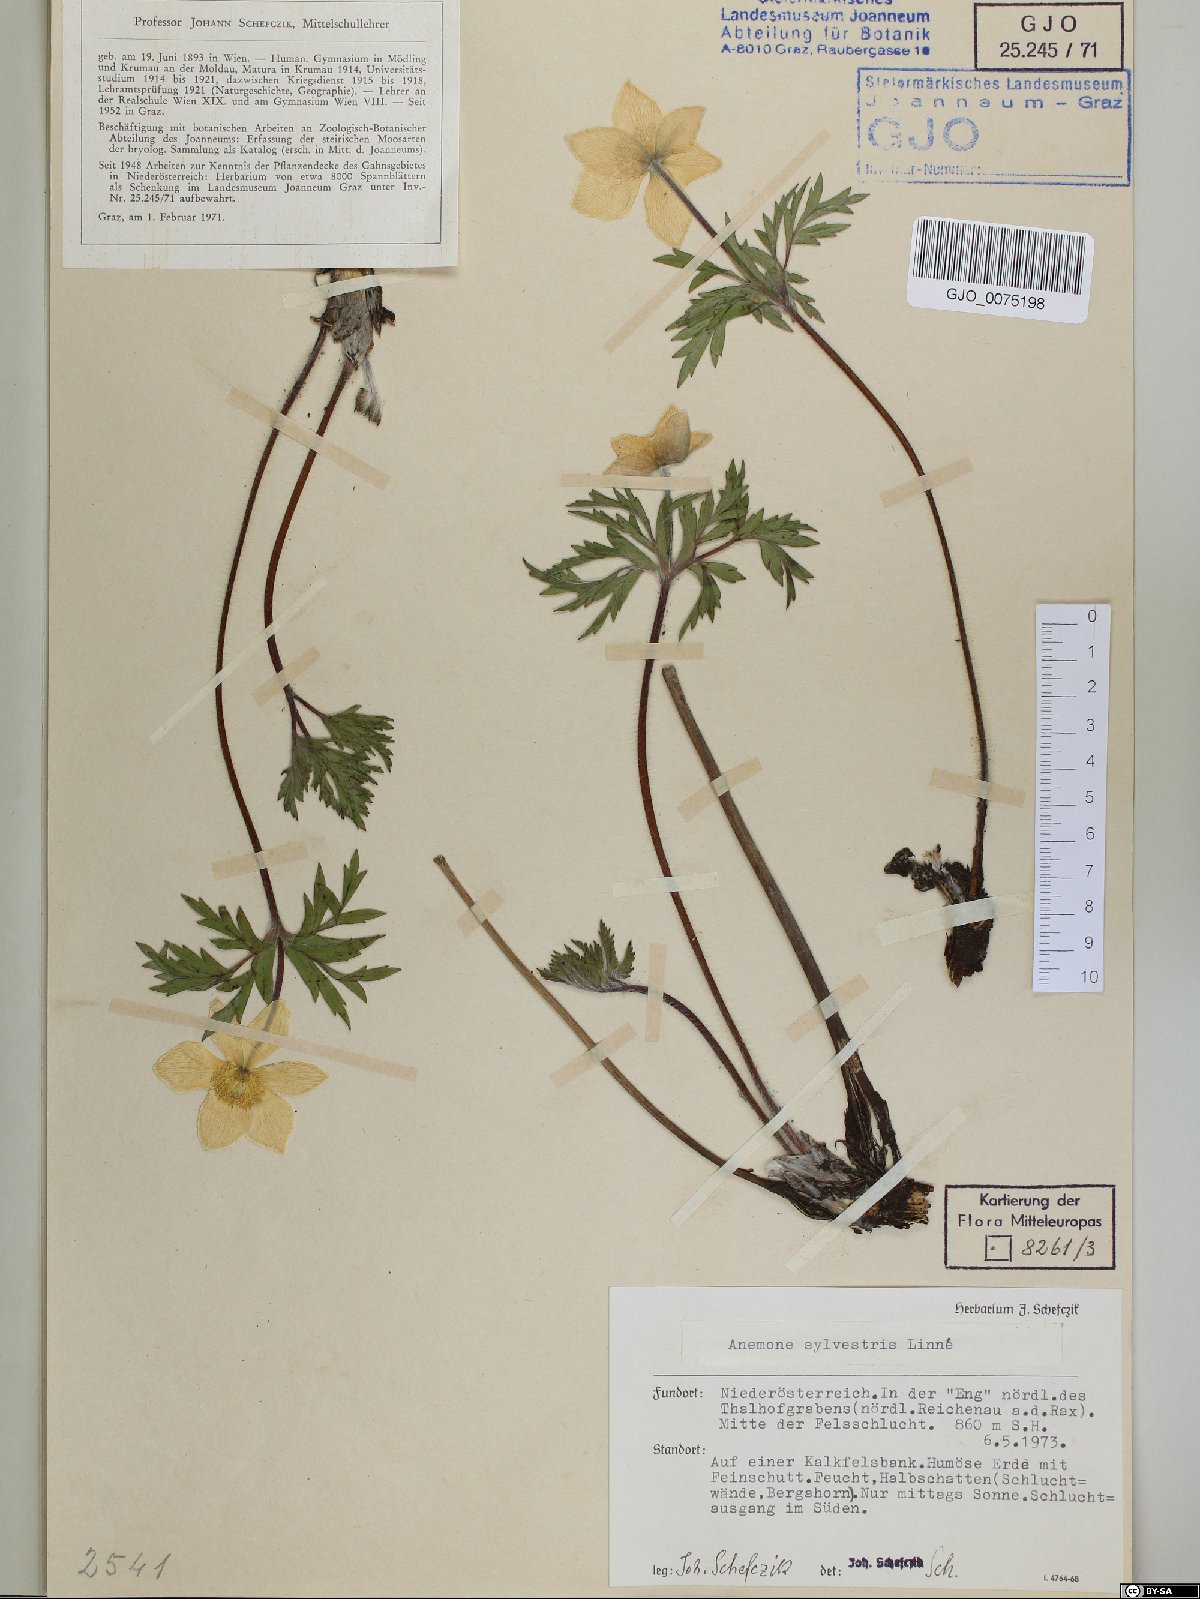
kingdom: Plantae
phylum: Tracheophyta
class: Magnoliopsida
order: Ranunculales
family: Ranunculaceae
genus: Anemone
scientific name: Anemone sylvestris
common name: Snowdrop anemone
